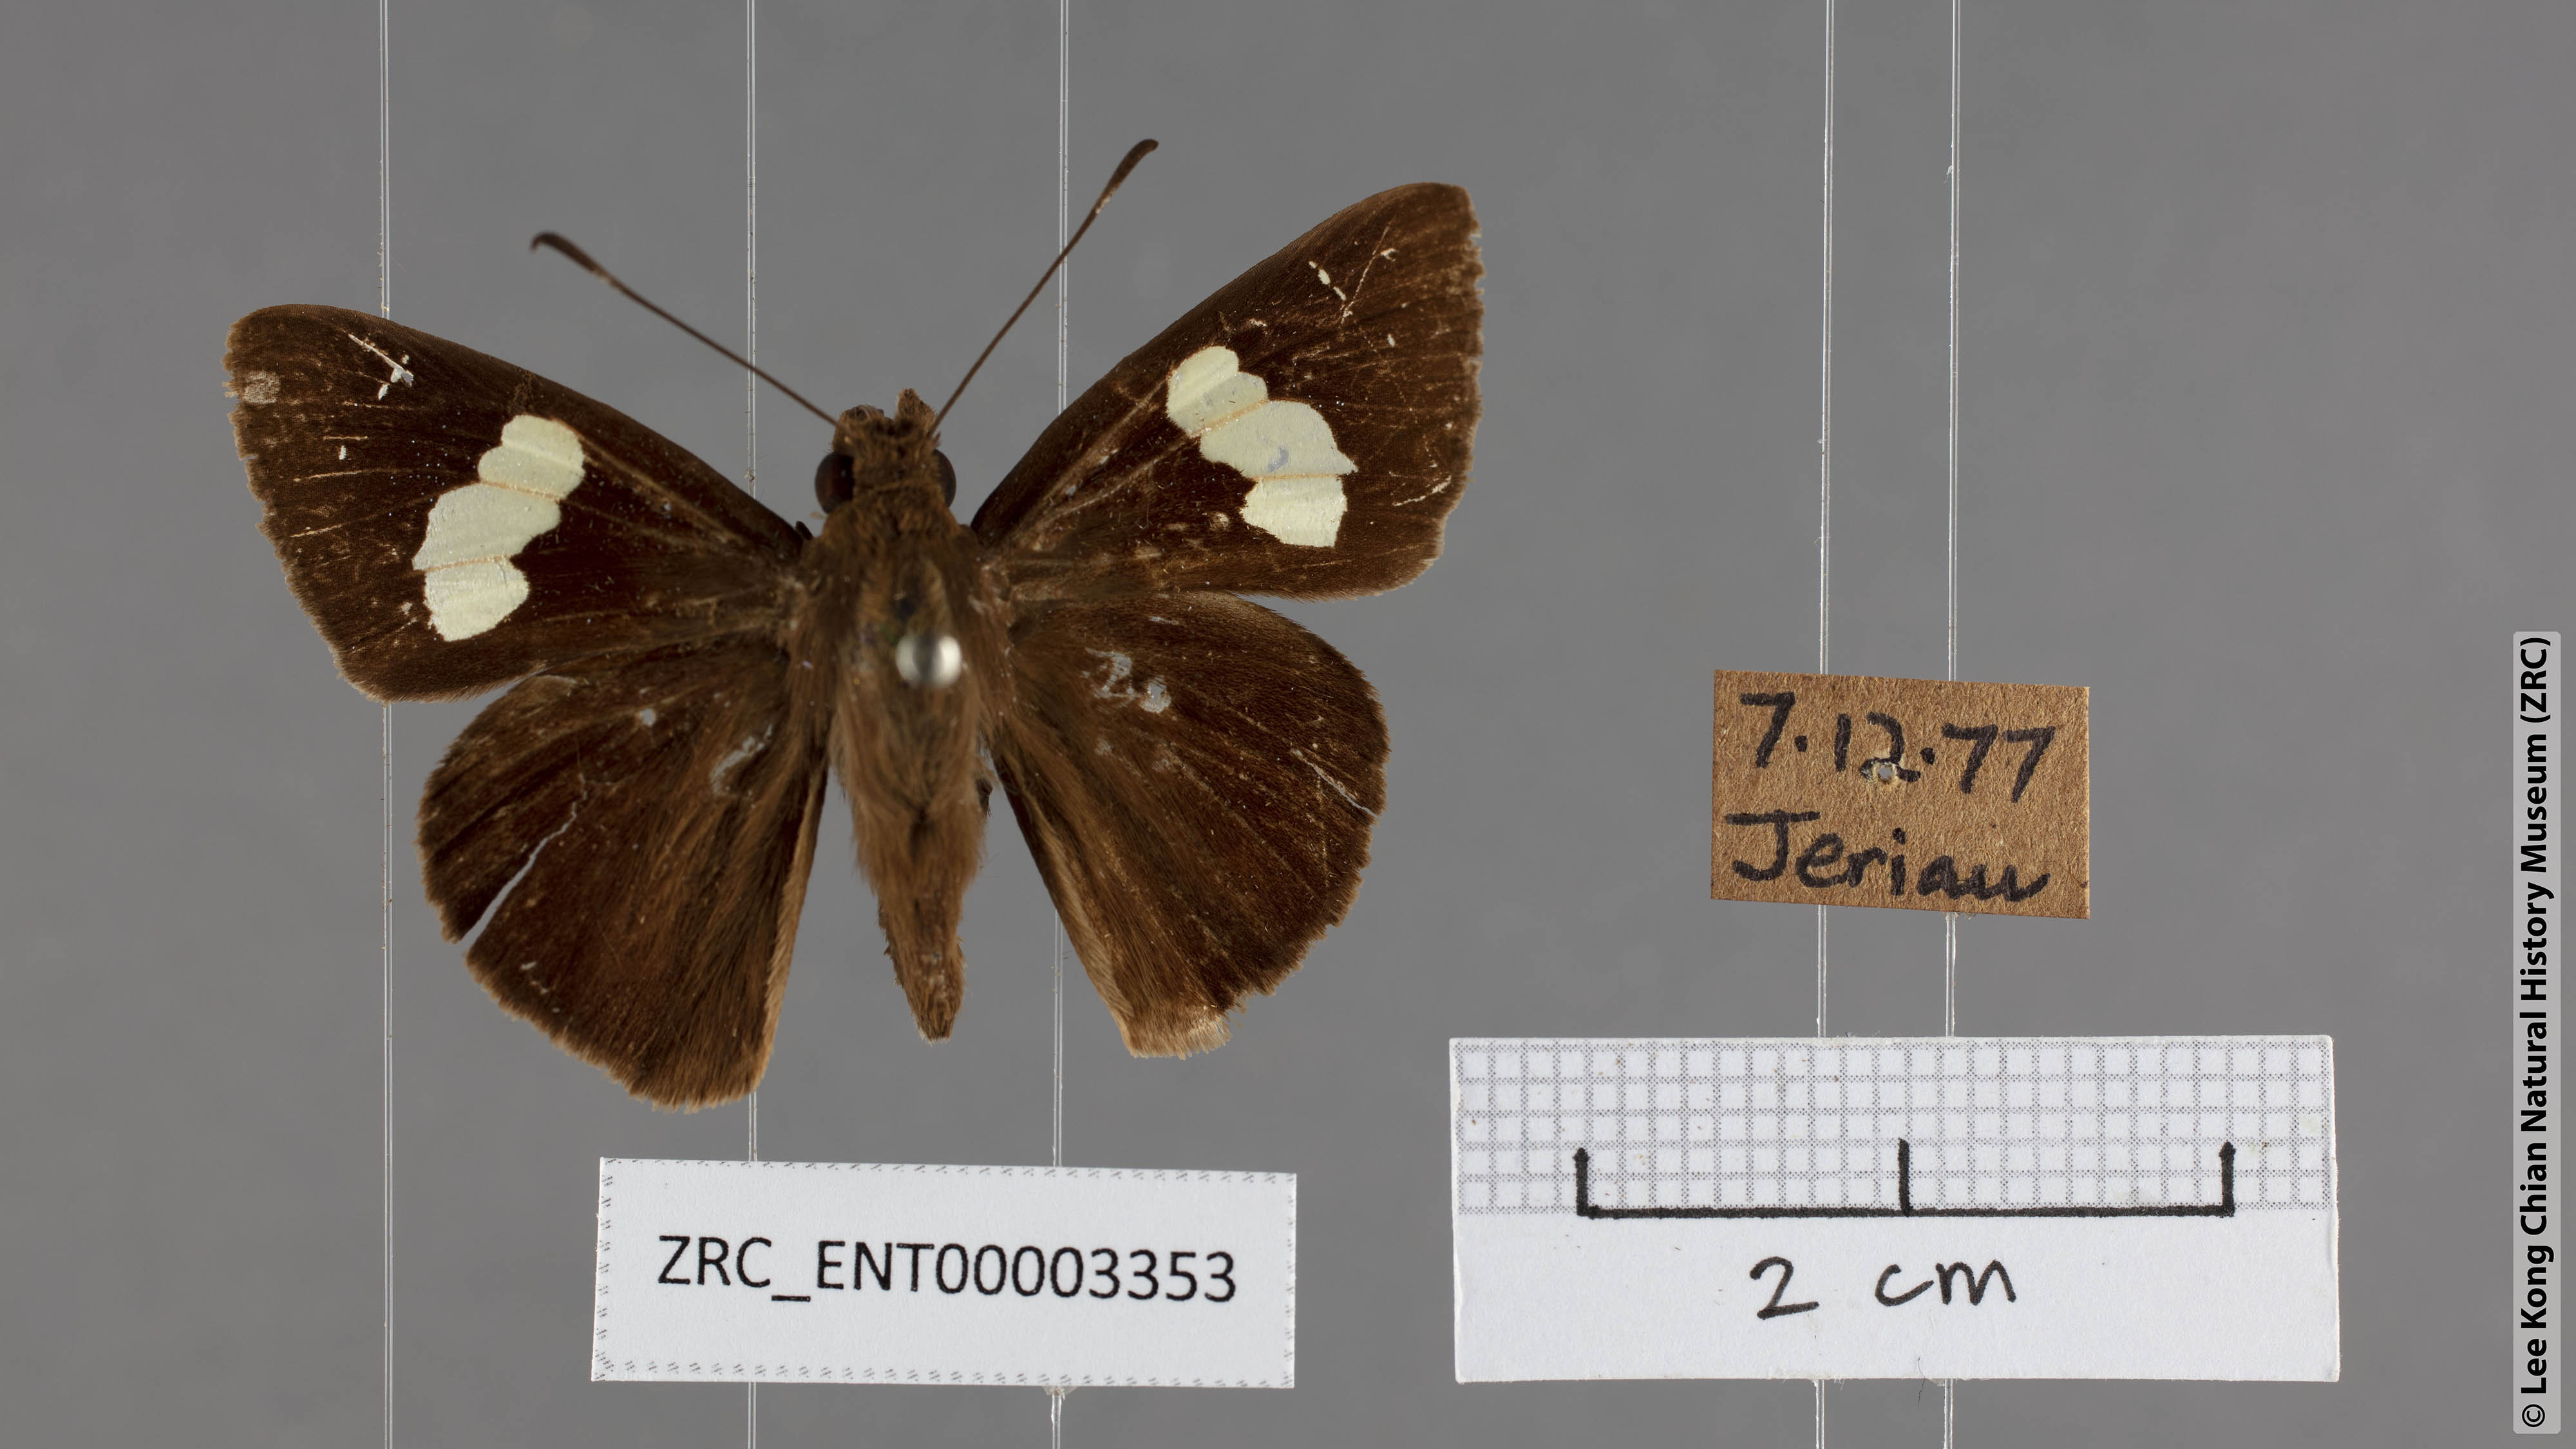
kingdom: Animalia
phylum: Arthropoda
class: Insecta
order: Lepidoptera
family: Hesperiidae
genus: Notocrypta
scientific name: Notocrypta curvifascia
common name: Restricted demon
